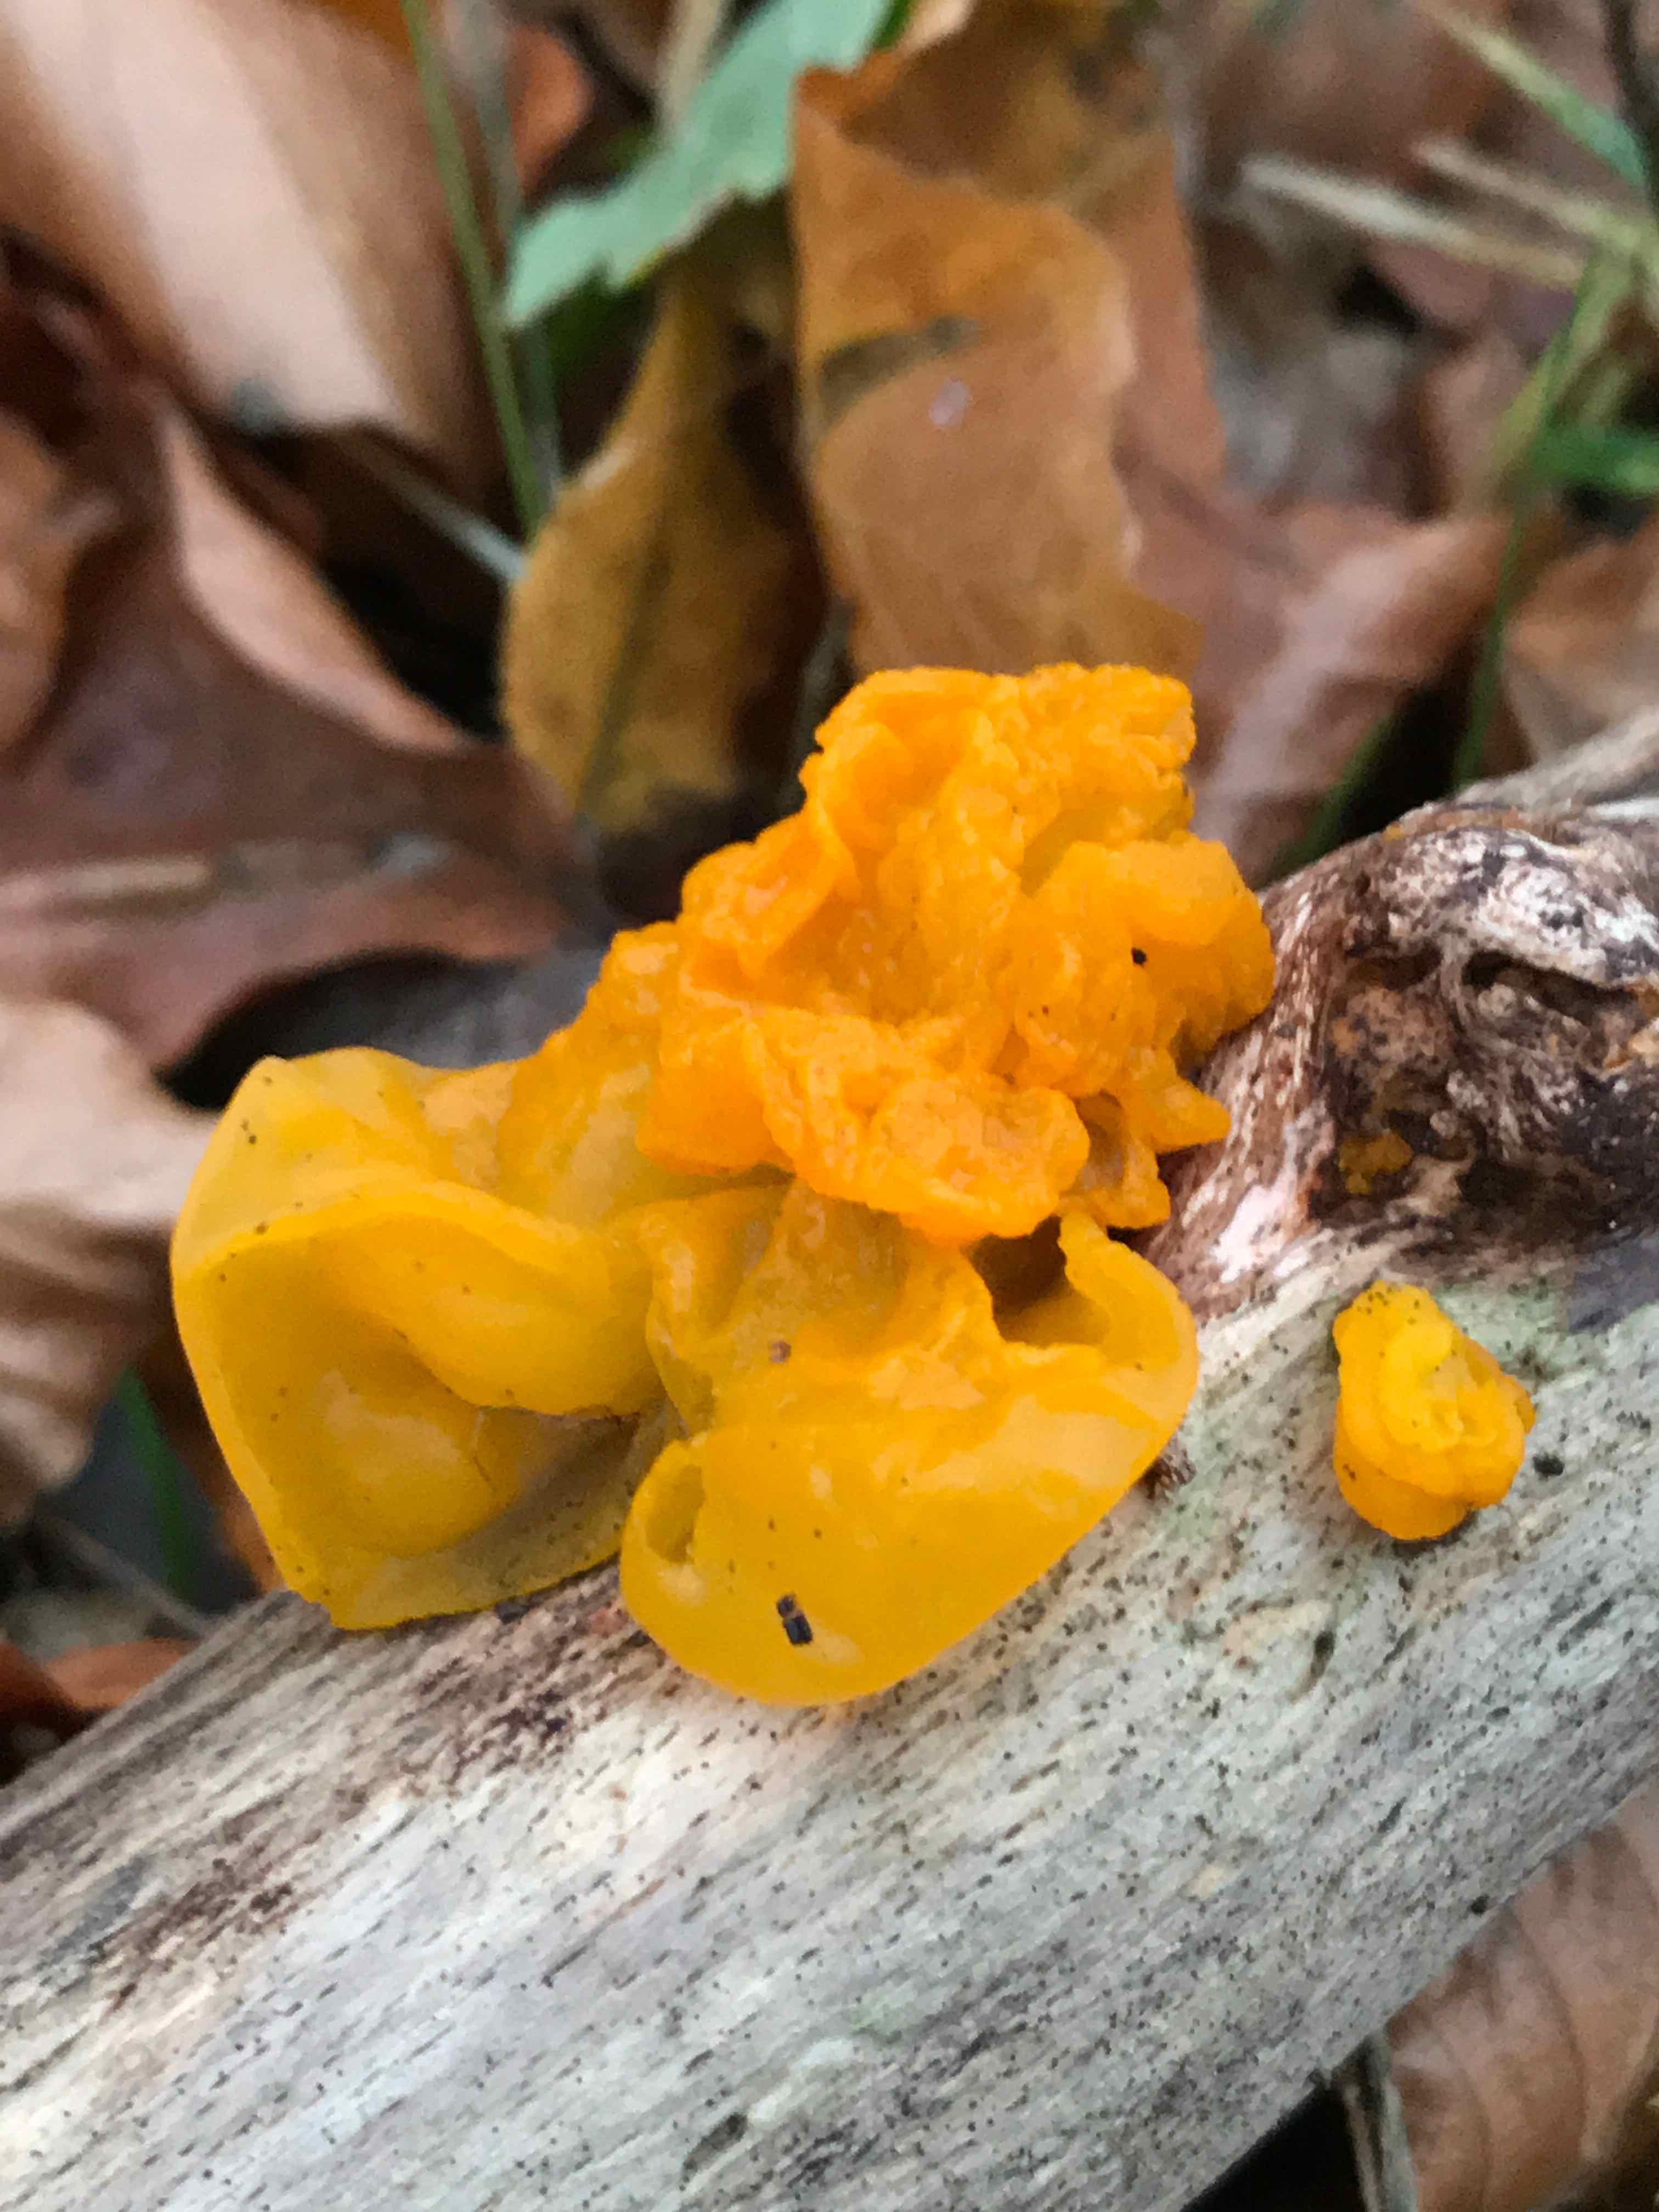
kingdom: Fungi
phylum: Basidiomycota
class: Tremellomycetes
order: Tremellales
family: Tremellaceae
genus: Tremella
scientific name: Tremella mesenterica
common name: gul bævresvamp
